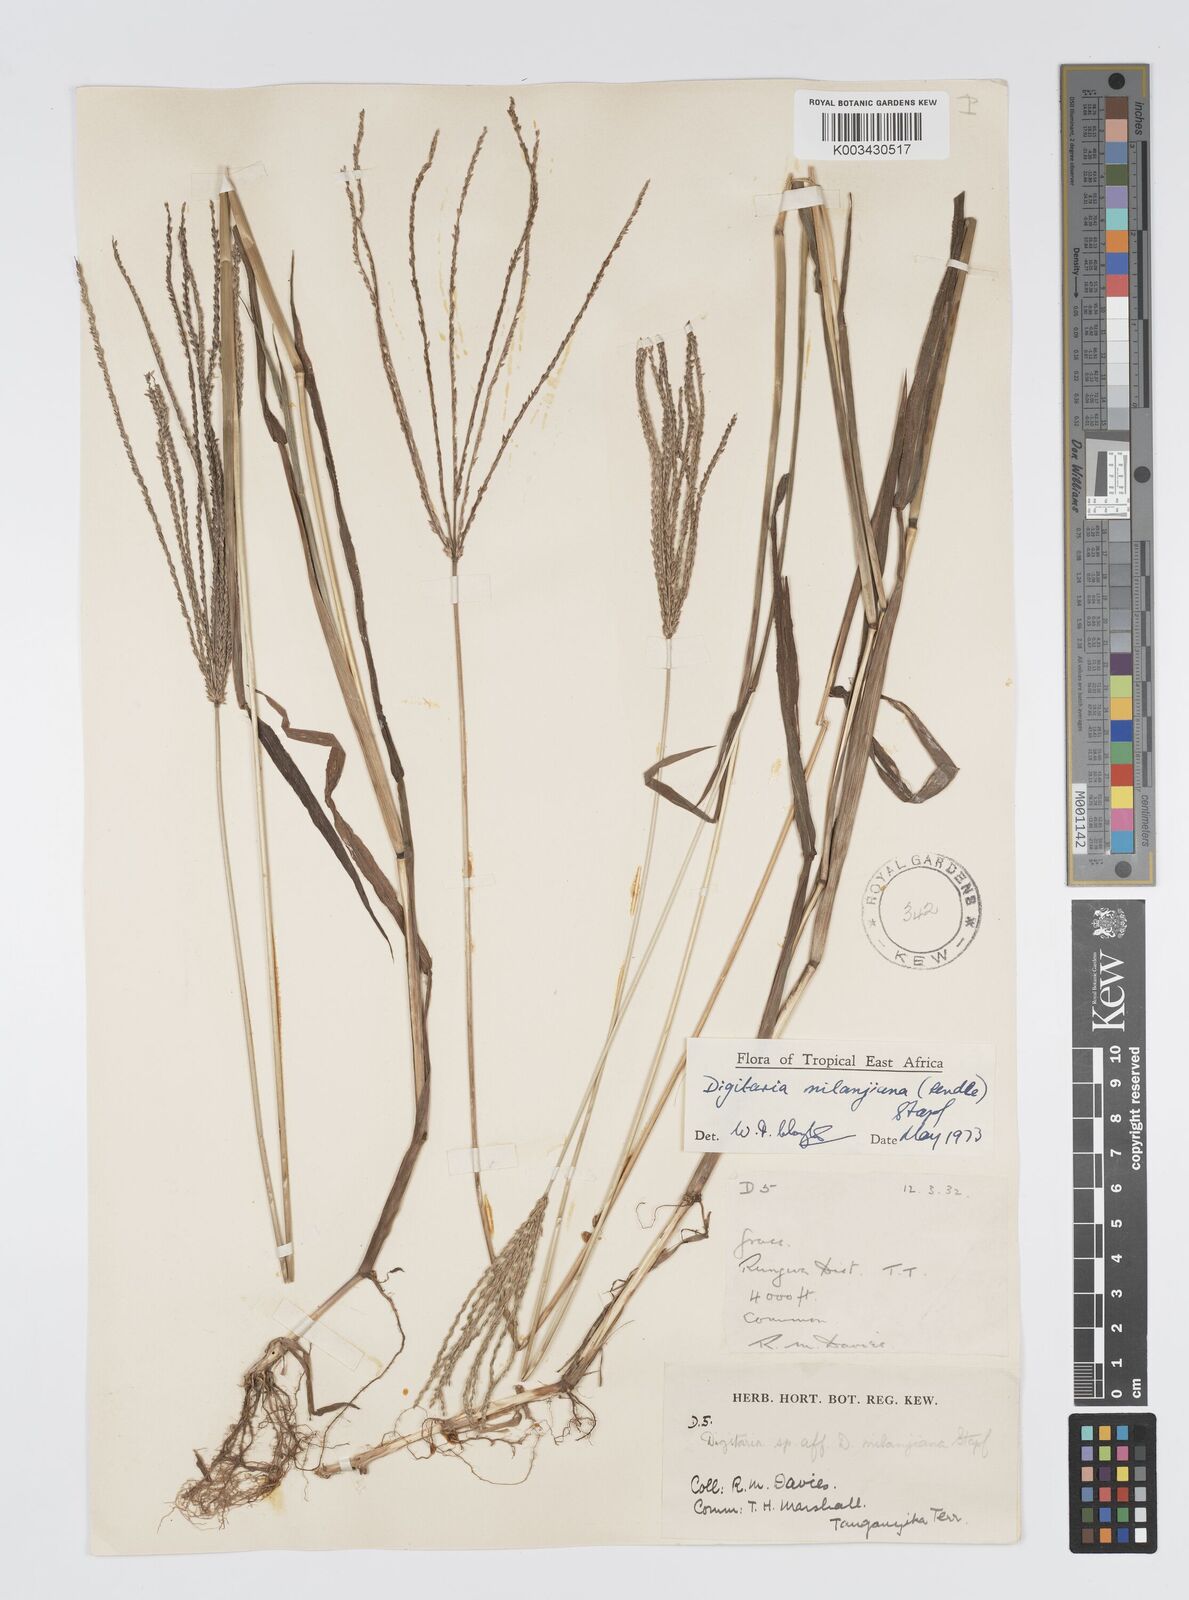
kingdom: Plantae
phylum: Tracheophyta
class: Liliopsida
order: Poales
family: Poaceae
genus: Digitaria
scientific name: Digitaria milanjiana
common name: Madagascar crabgrass
